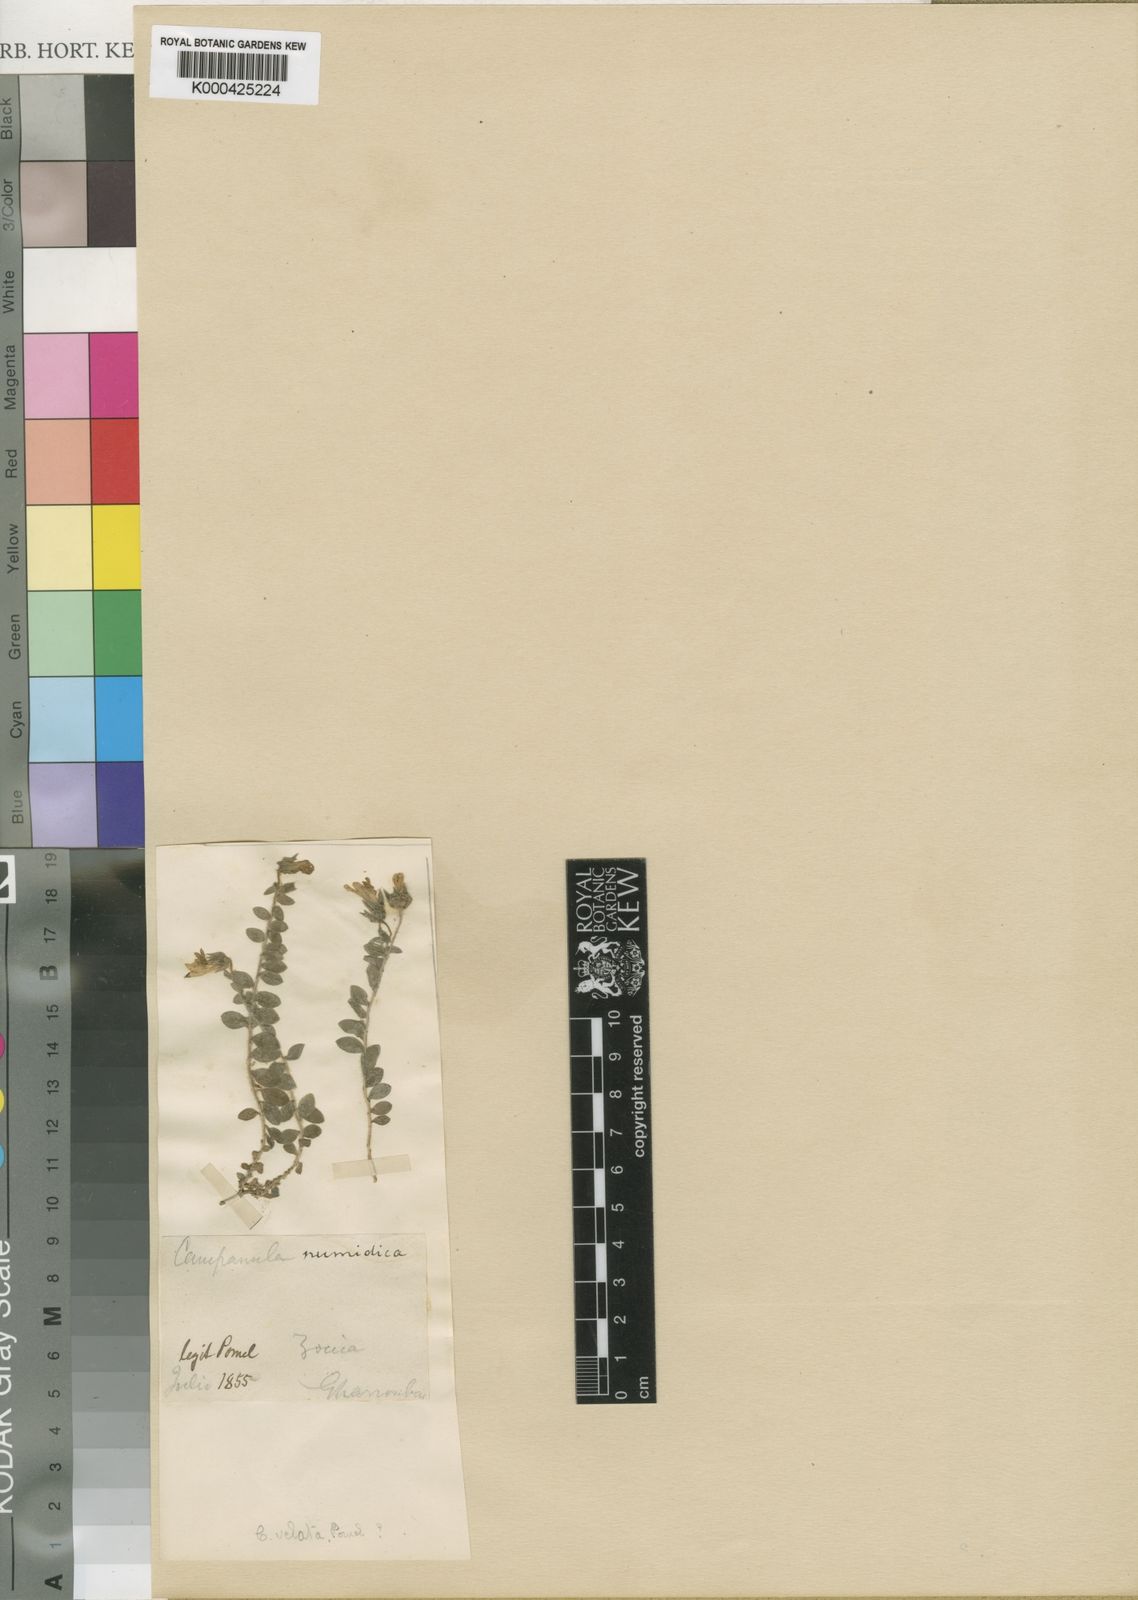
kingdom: Plantae
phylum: Tracheophyta
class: Magnoliopsida
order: Asterales
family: Campanulaceae
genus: Campanula
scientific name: Campanula velata
